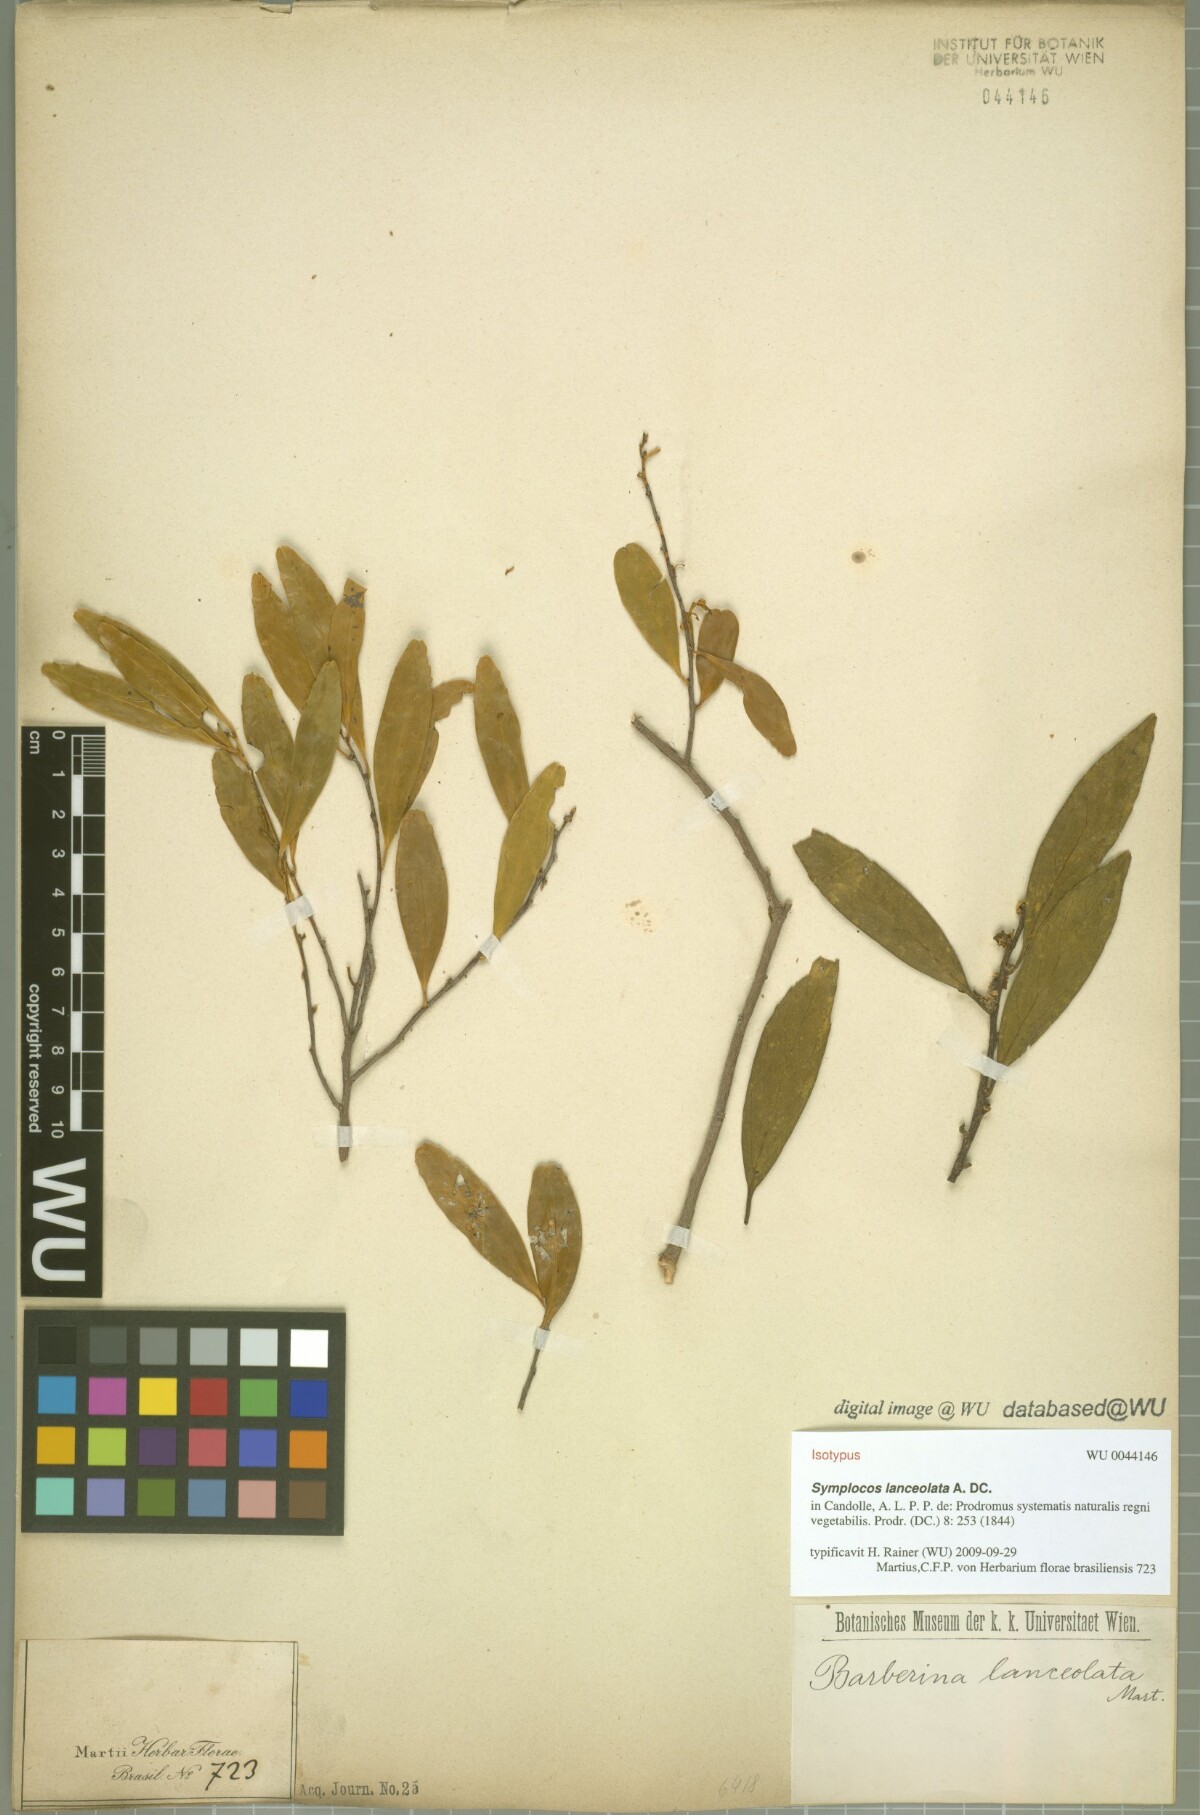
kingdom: Plantae
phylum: Tracheophyta
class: Magnoliopsida
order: Ericales
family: Symplocaceae
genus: Symplocos
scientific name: Symplocos oblongifolia
